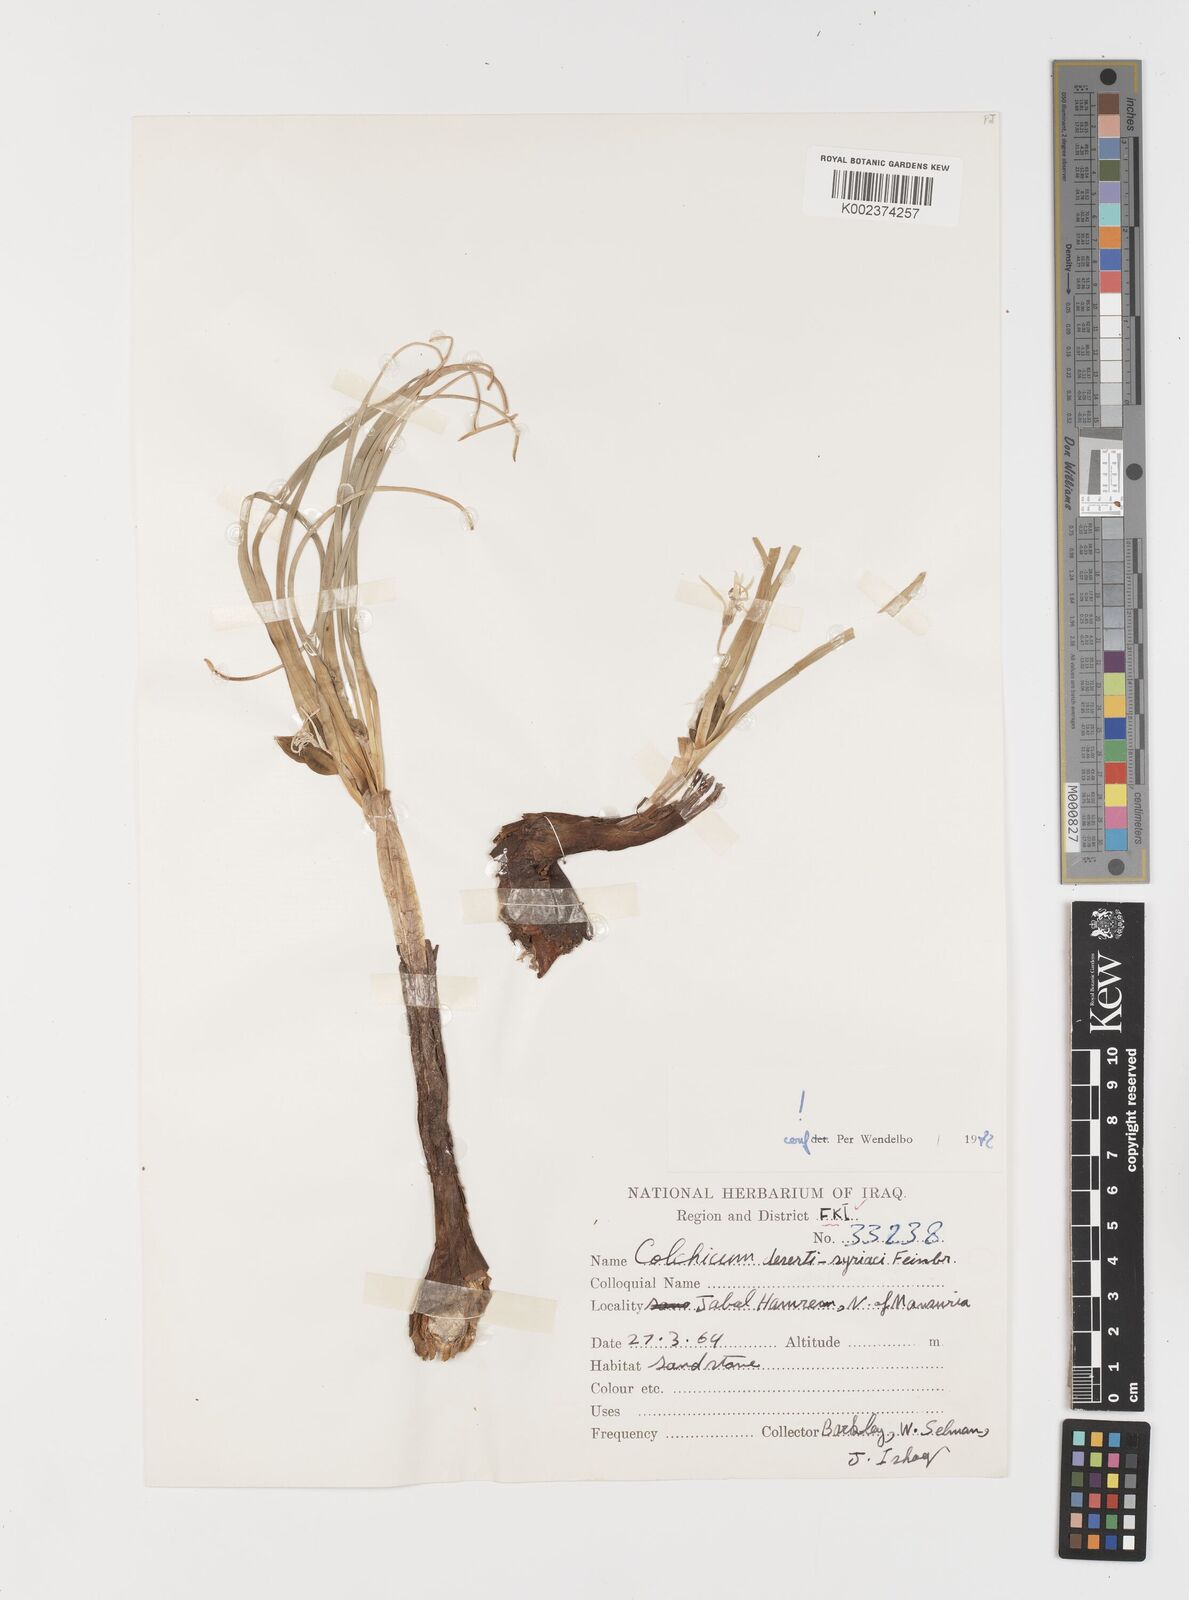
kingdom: Plantae
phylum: Tracheophyta
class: Liliopsida
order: Liliales
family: Colchicaceae
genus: Colchicum
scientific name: Colchicum schimperi
